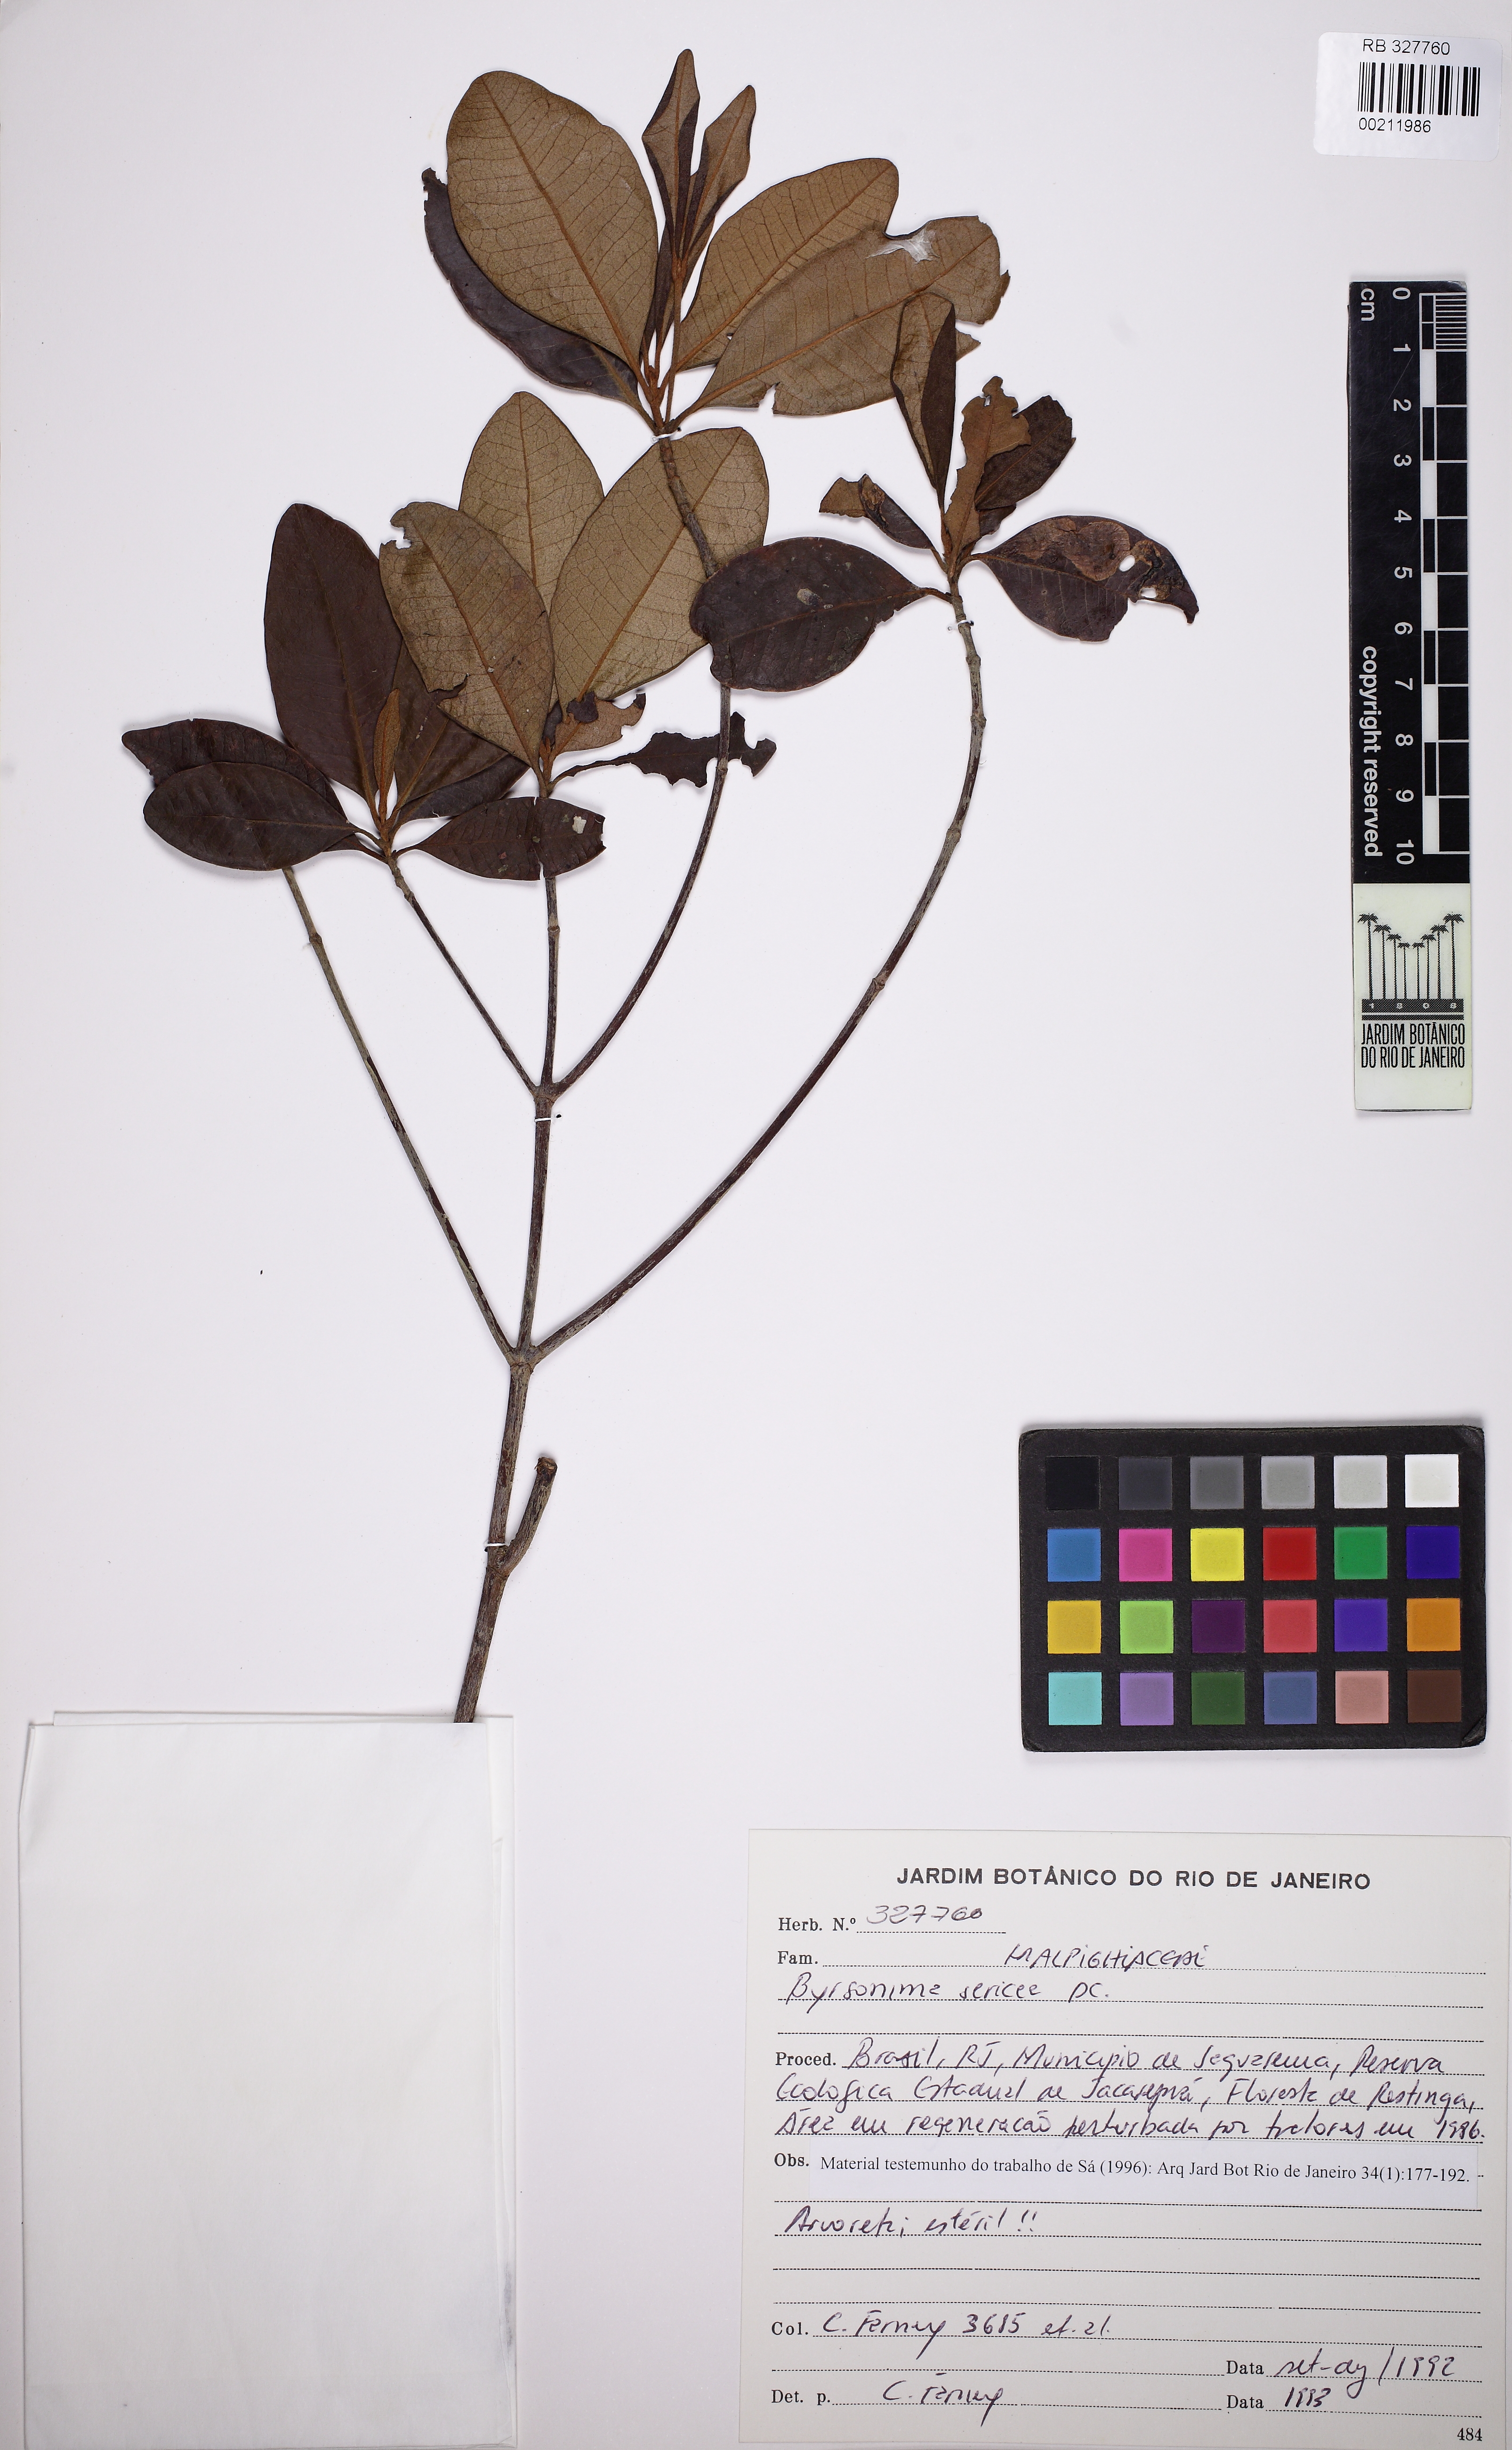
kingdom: Plantae
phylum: Tracheophyta
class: Magnoliopsida
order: Malpighiales
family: Malpighiaceae
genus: Byrsonima
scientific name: Byrsonima sericea
